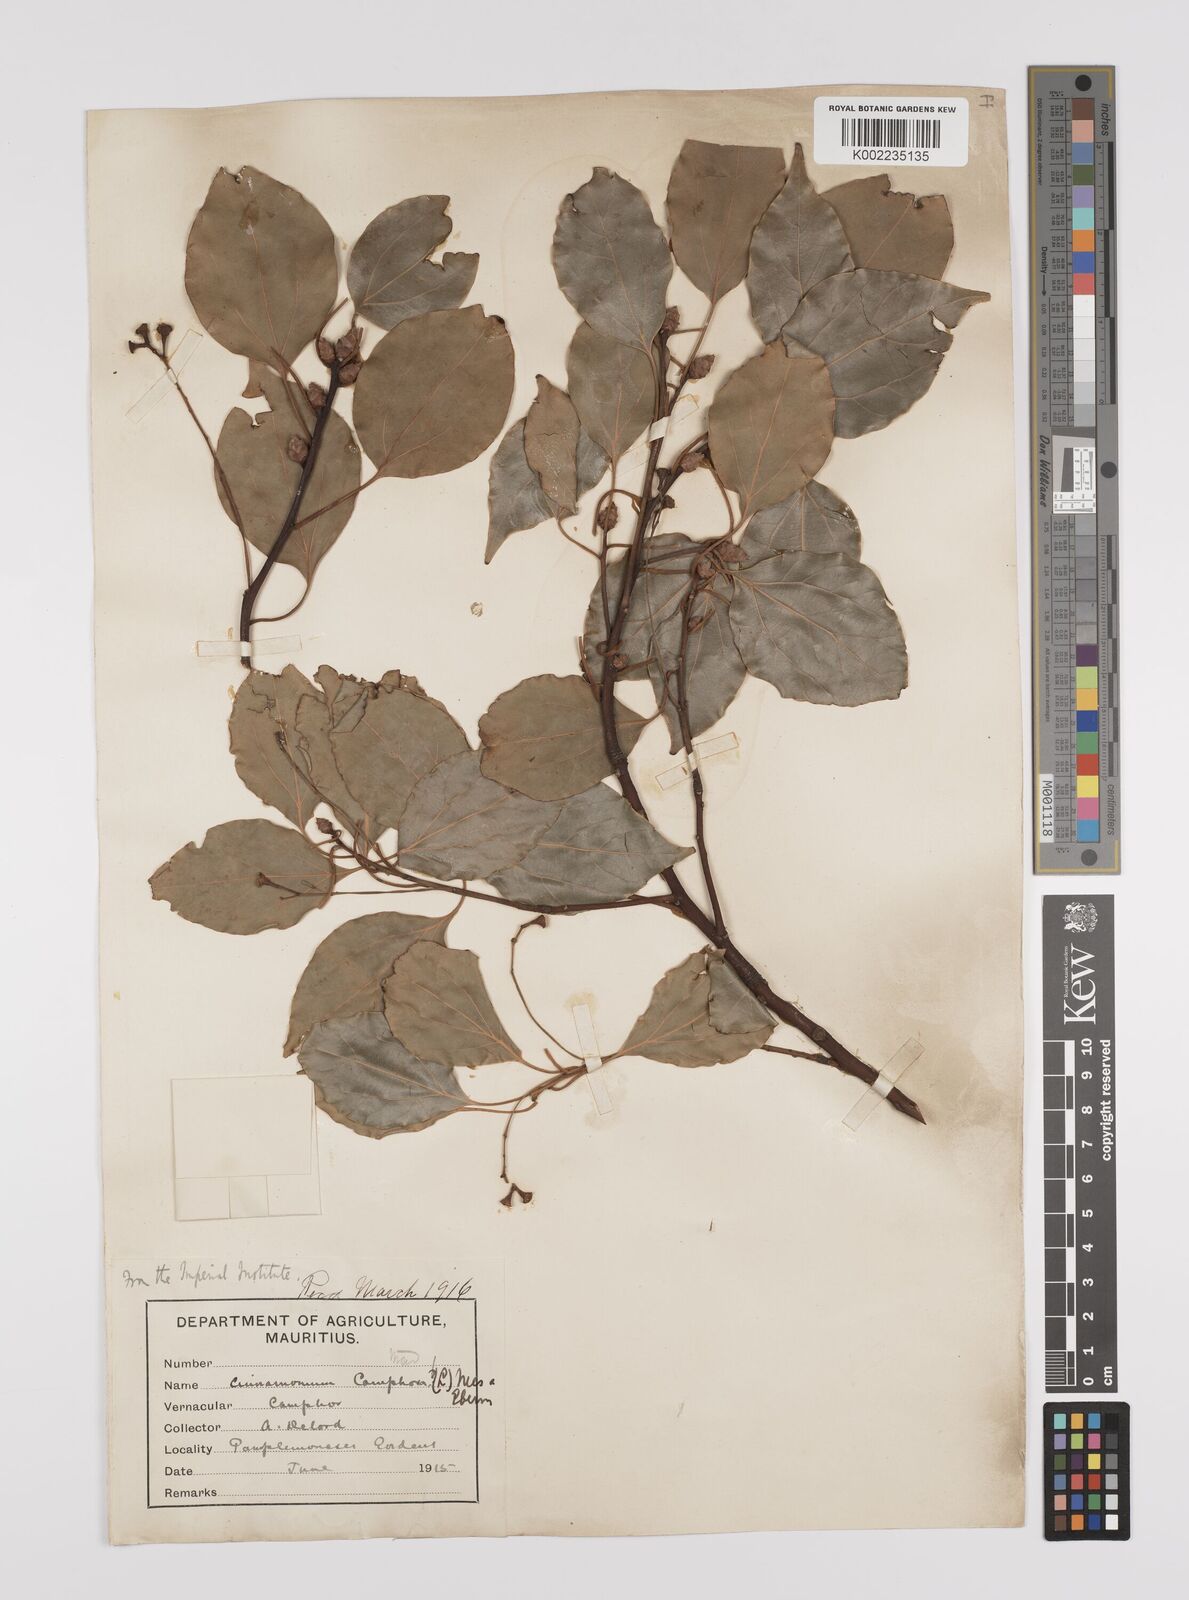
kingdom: Plantae
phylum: Tracheophyta
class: Magnoliopsida
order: Laurales
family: Lauraceae
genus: Cinnamomum
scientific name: Cinnamomum camphora
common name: Camphortree
